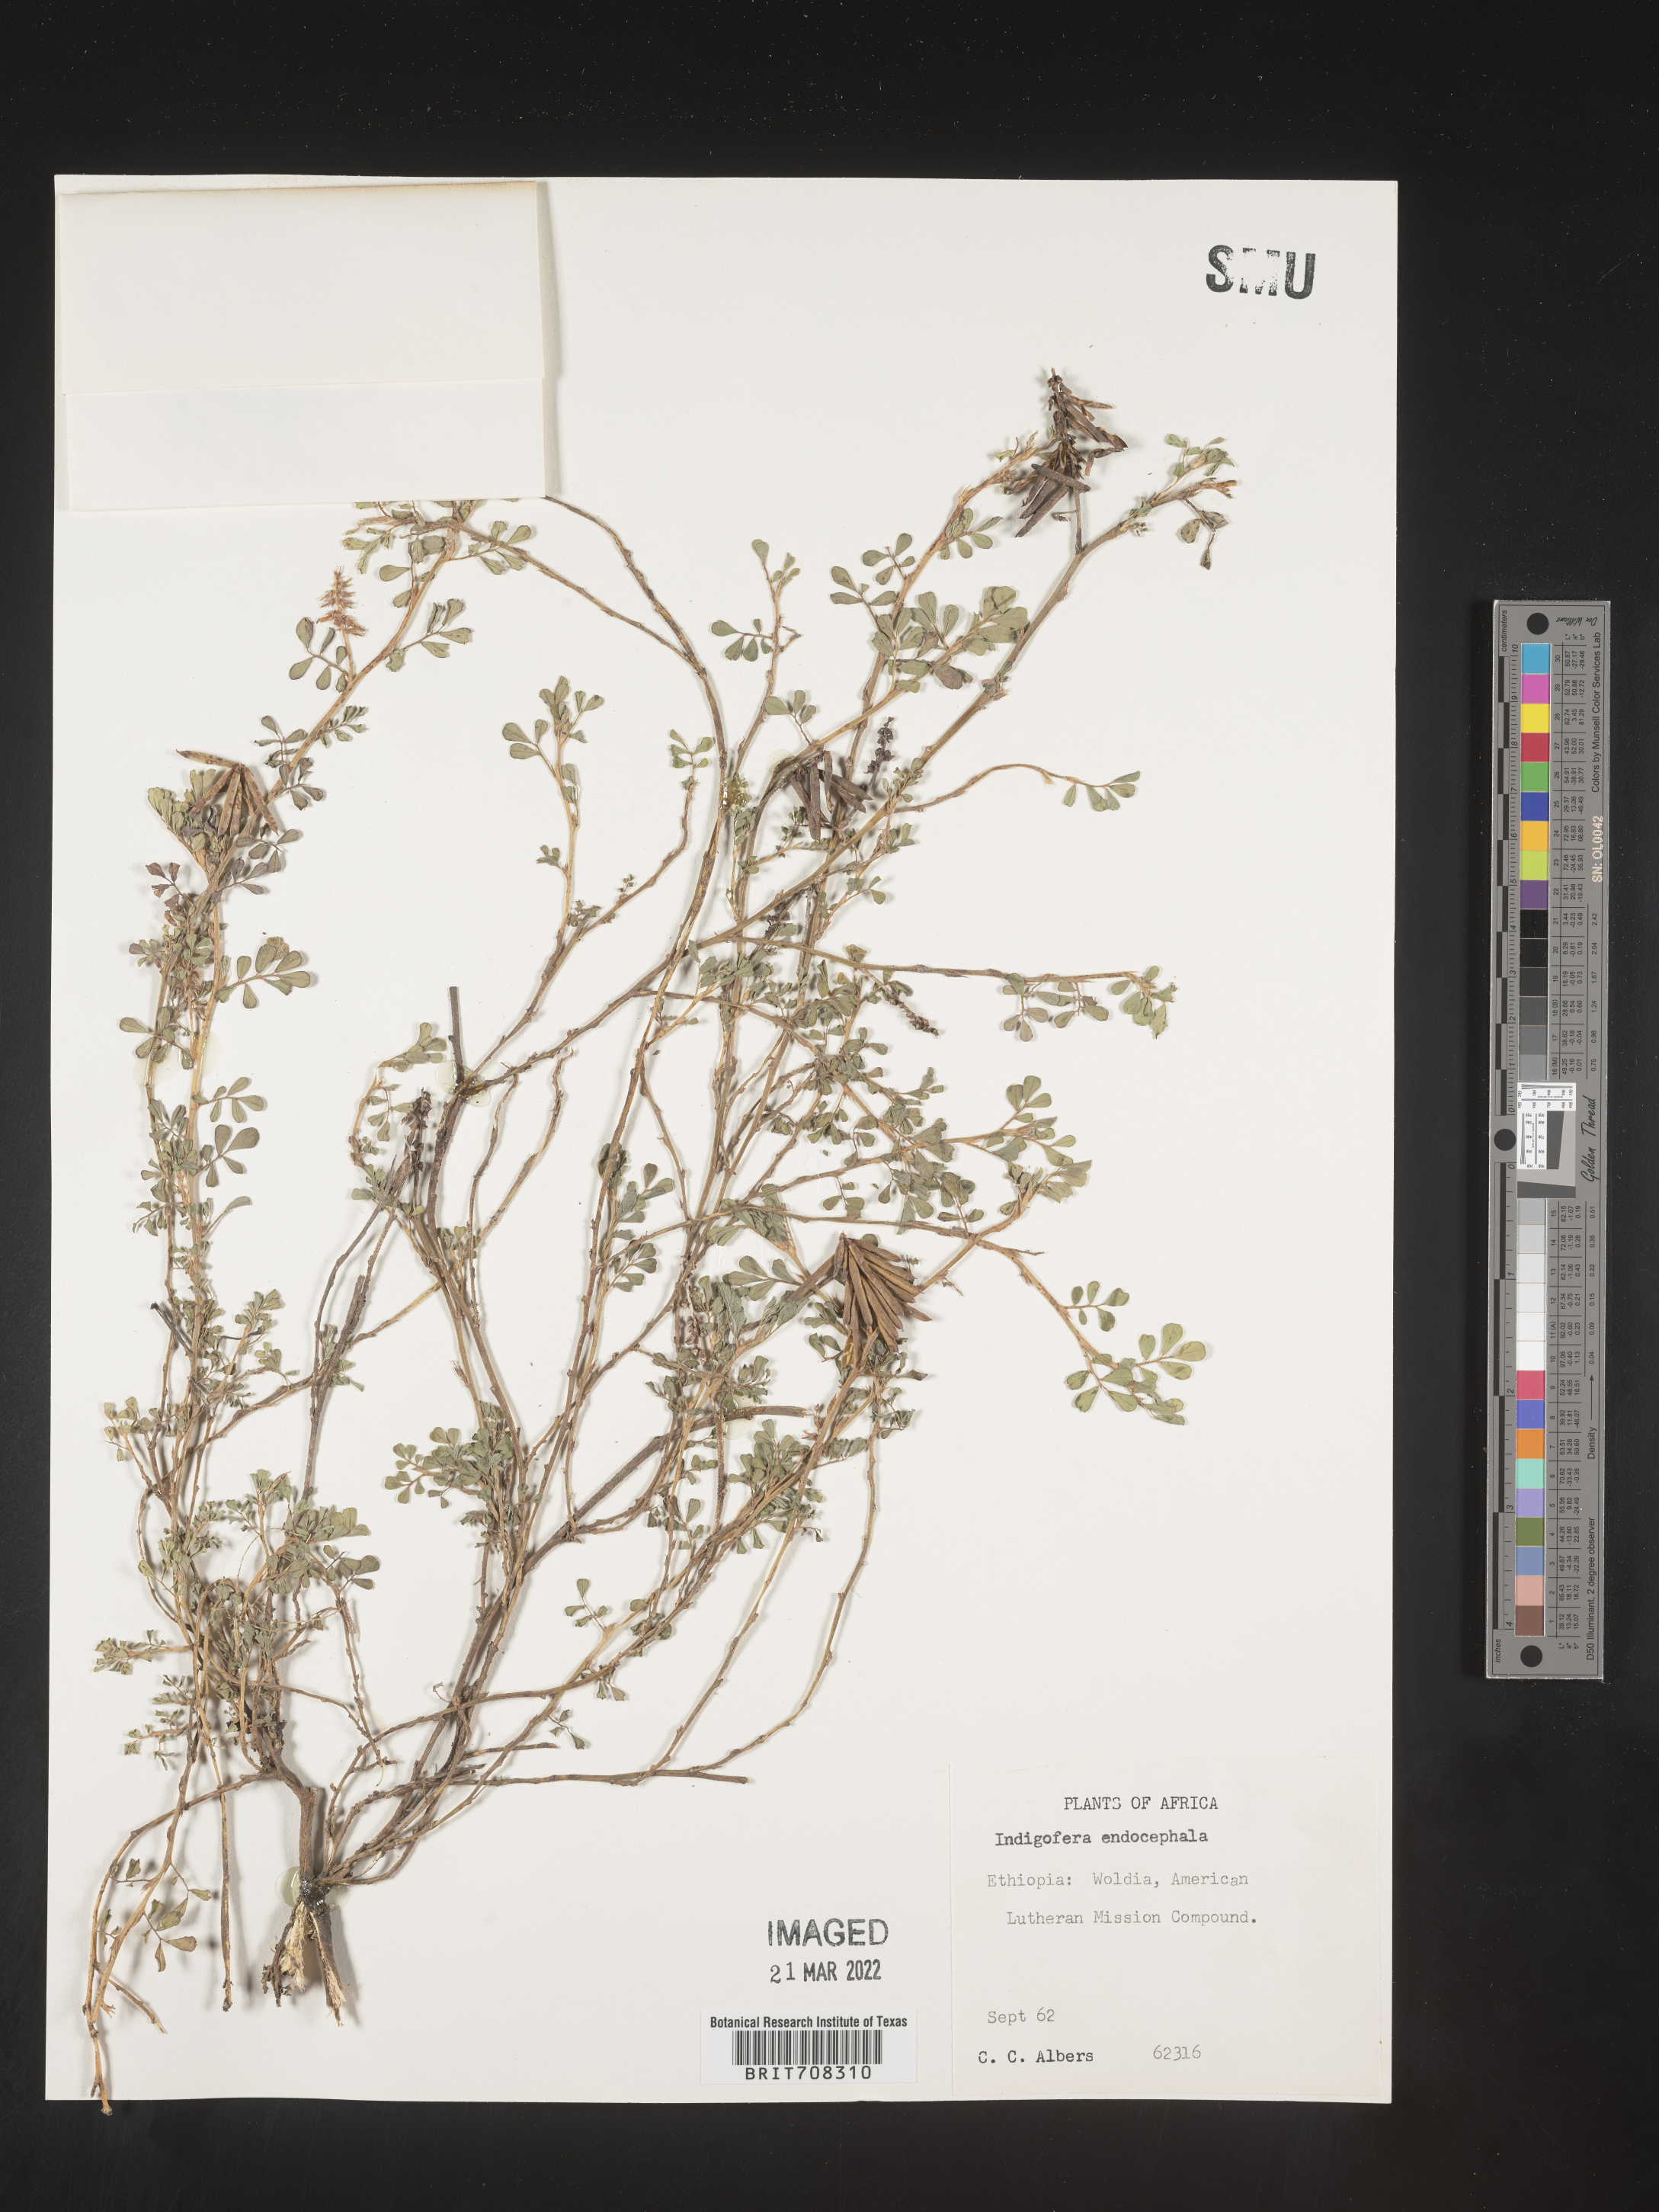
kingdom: Plantae
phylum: Tracheophyta
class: Magnoliopsida
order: Fabales
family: Fabaceae
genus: Indigofera
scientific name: Indigofera
